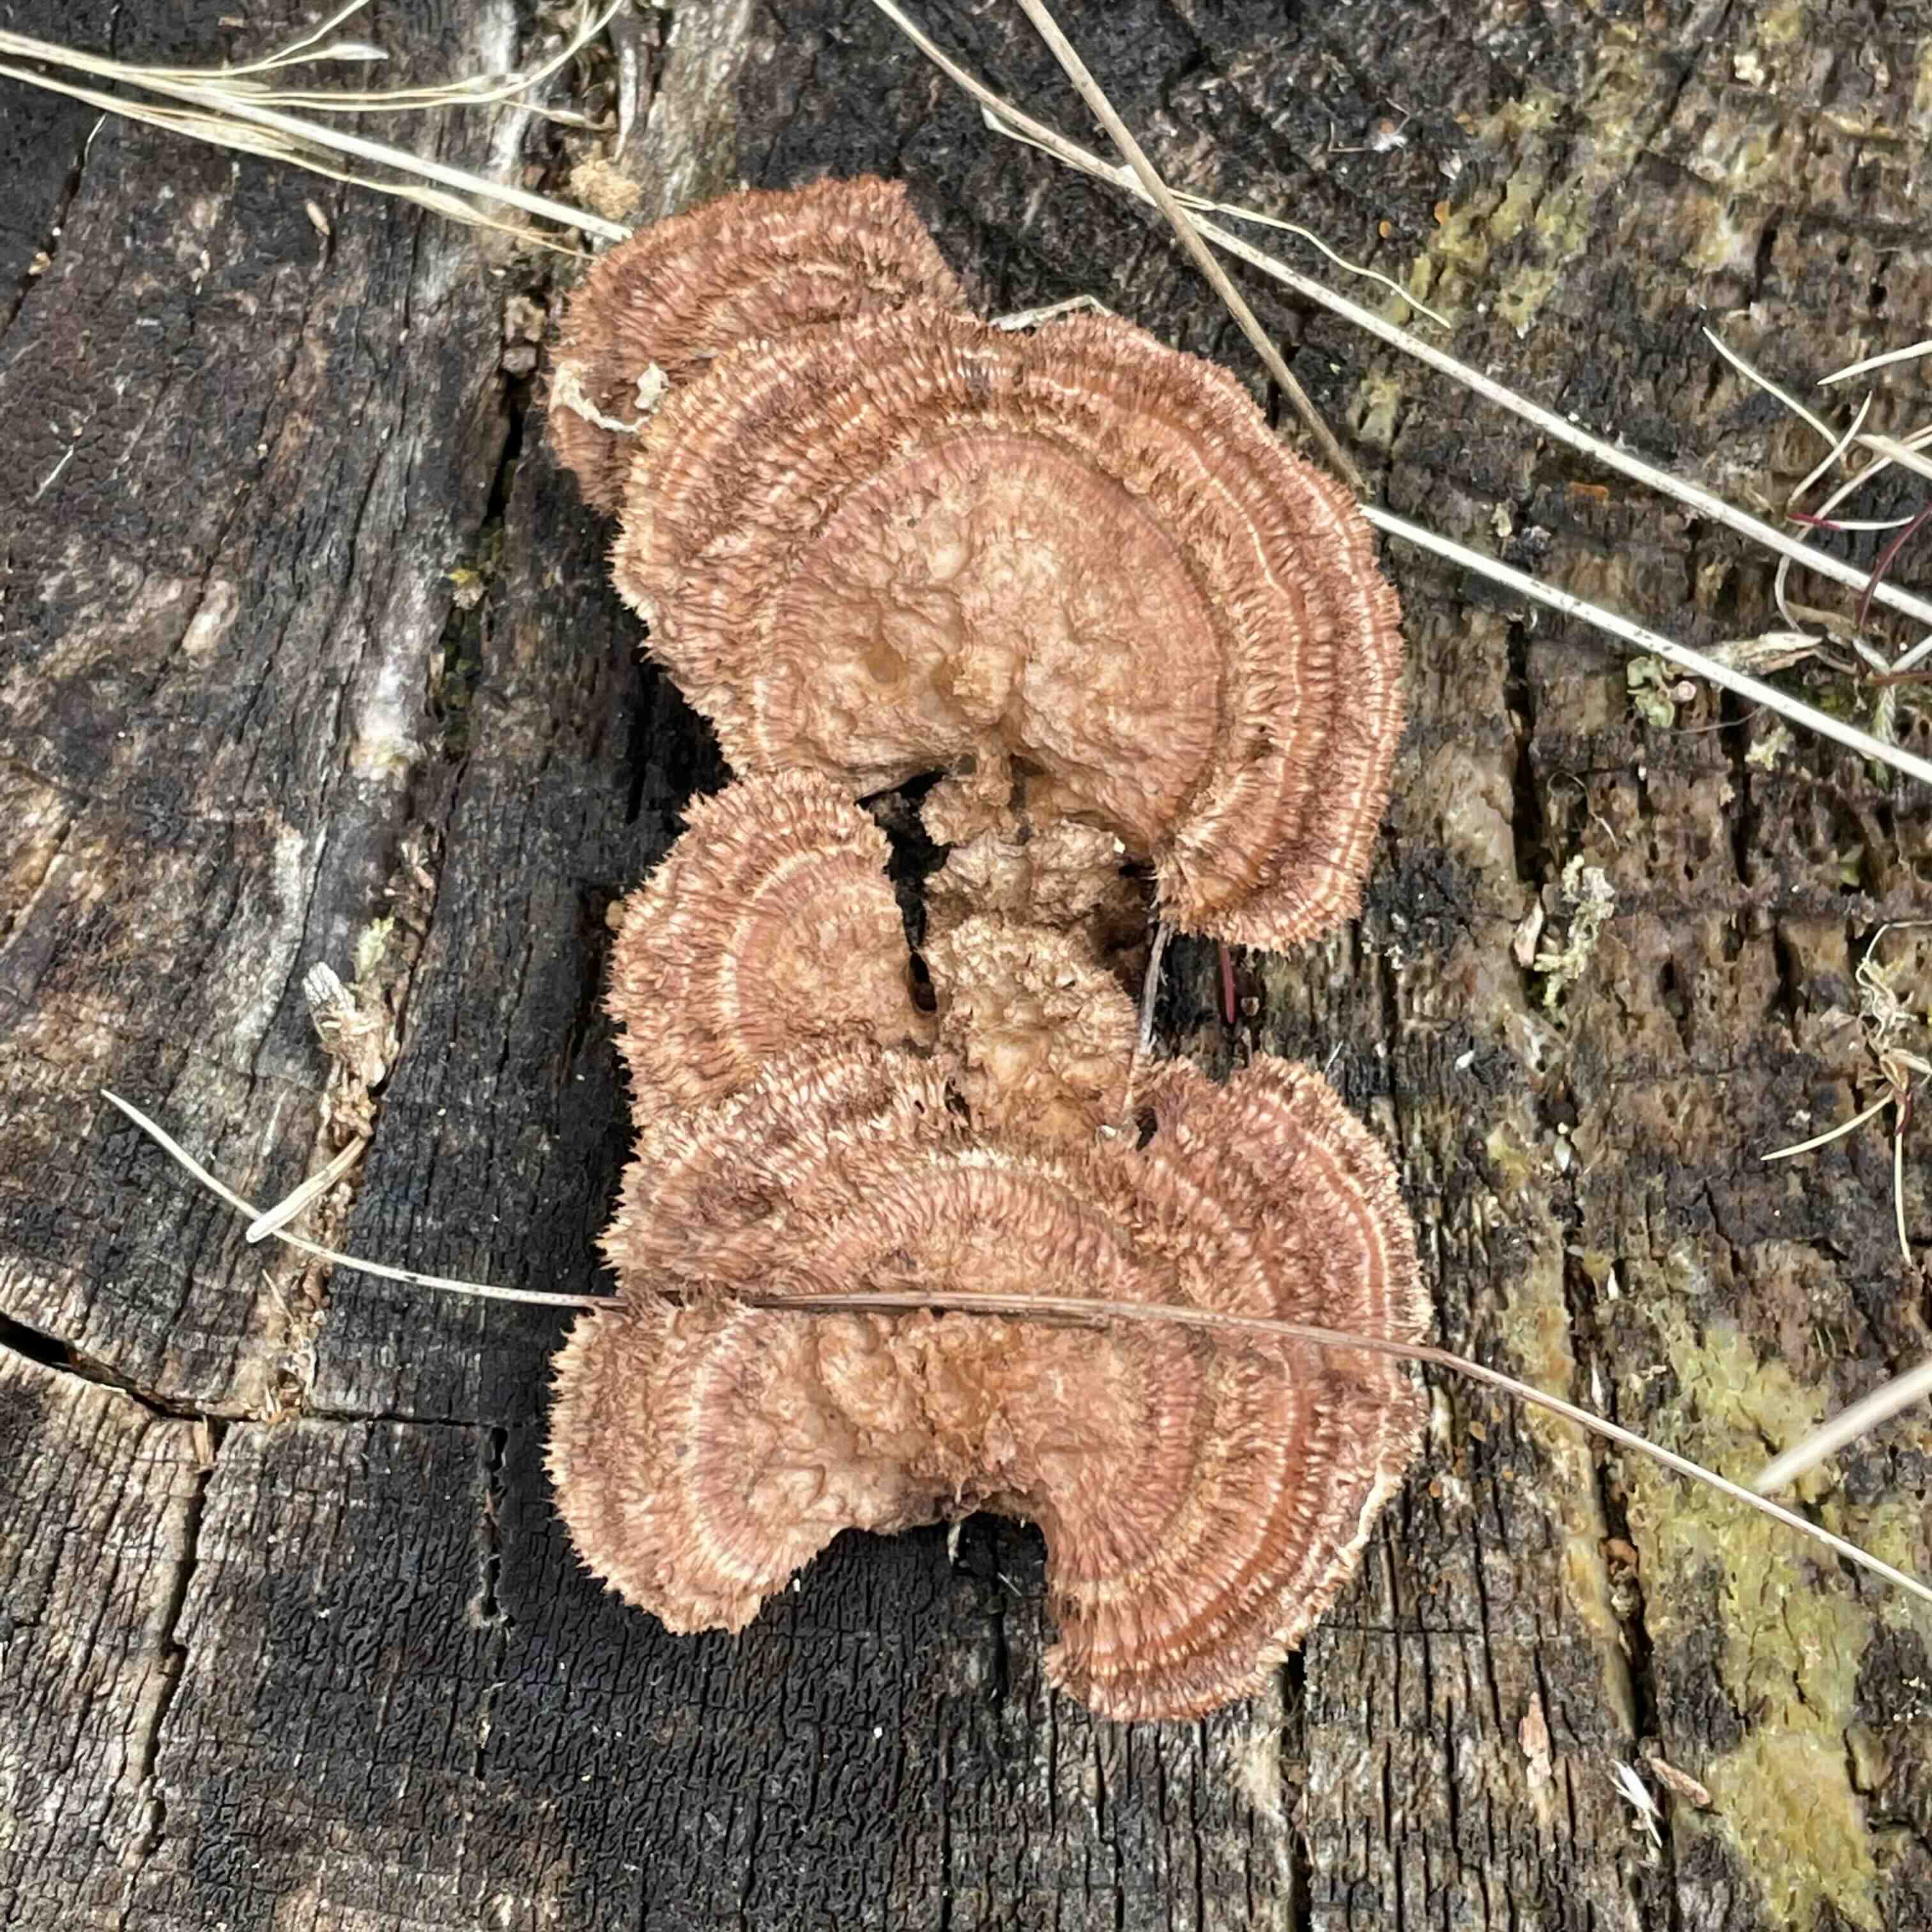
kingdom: Fungi
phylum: Basidiomycota
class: Agaricomycetes
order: Gloeophyllales
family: Gloeophyllaceae
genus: Gloeophyllum
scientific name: Gloeophyllum sepiarium
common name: fyrre-korkhat
